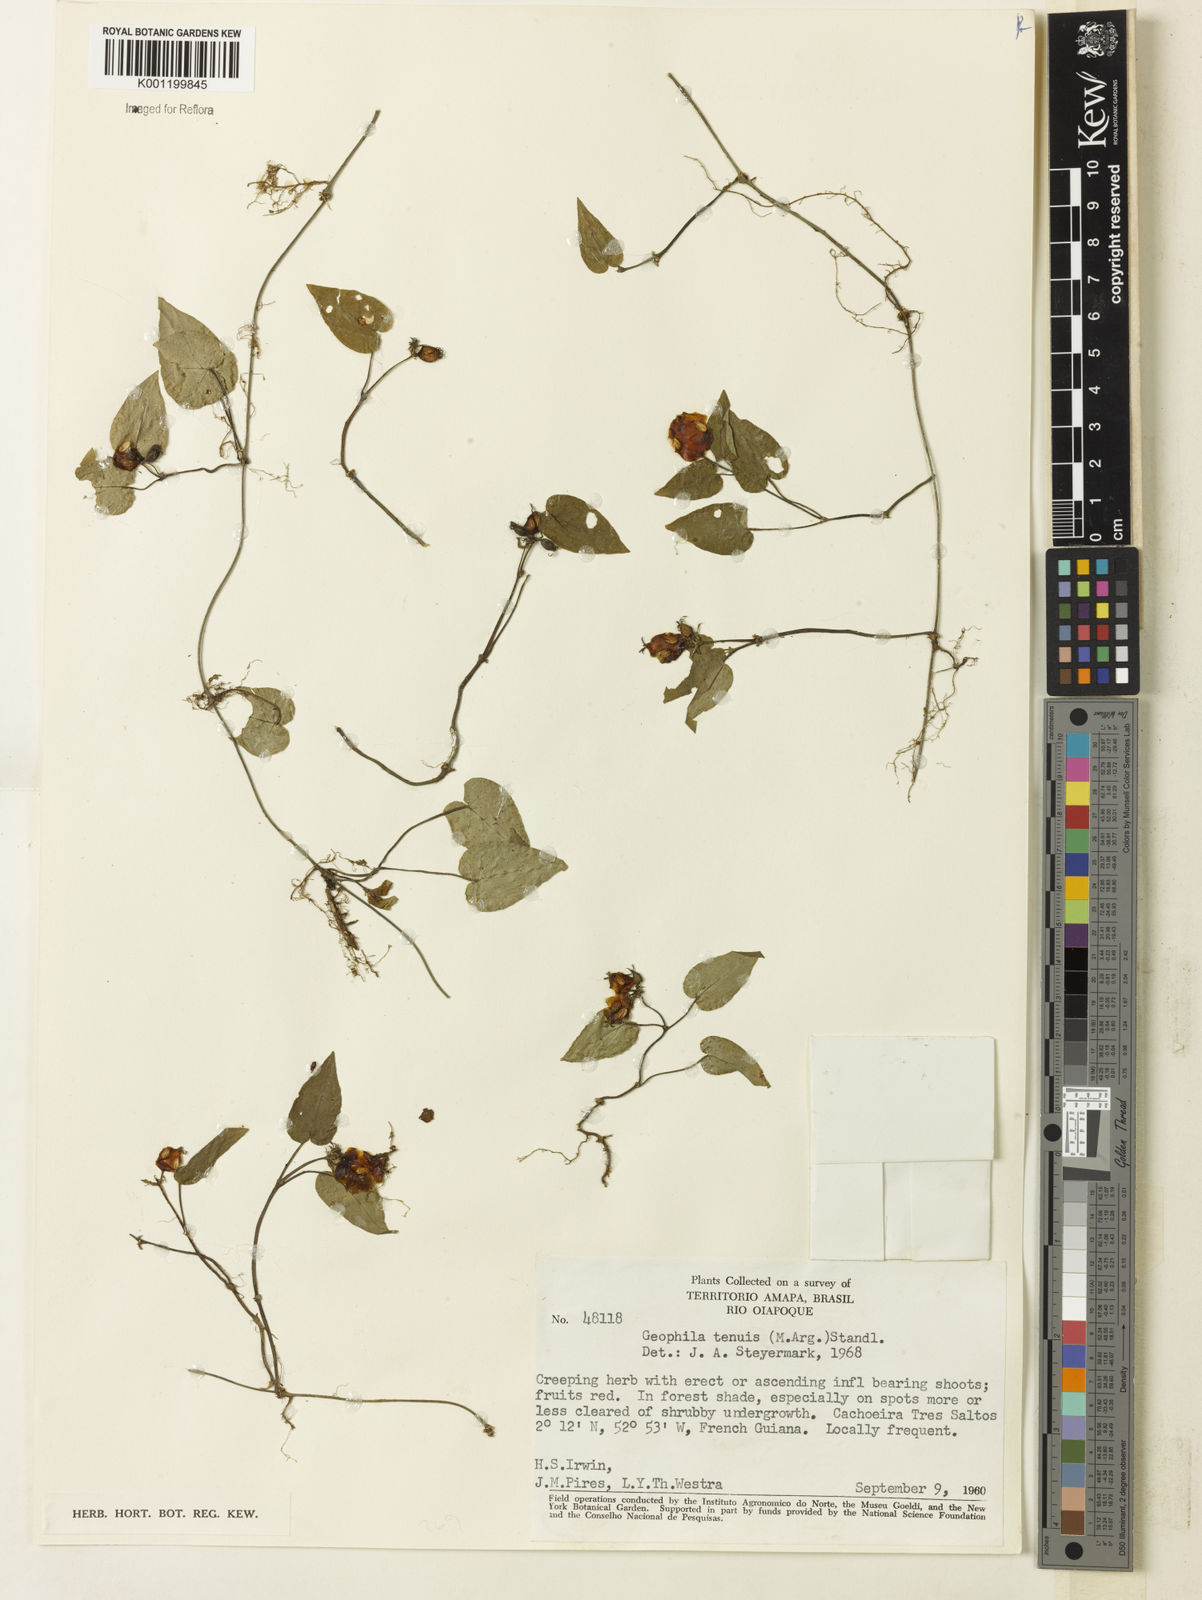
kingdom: Plantae
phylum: Tracheophyta
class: Magnoliopsida
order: Gentianales
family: Rubiaceae
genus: Geophila
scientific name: Geophila
